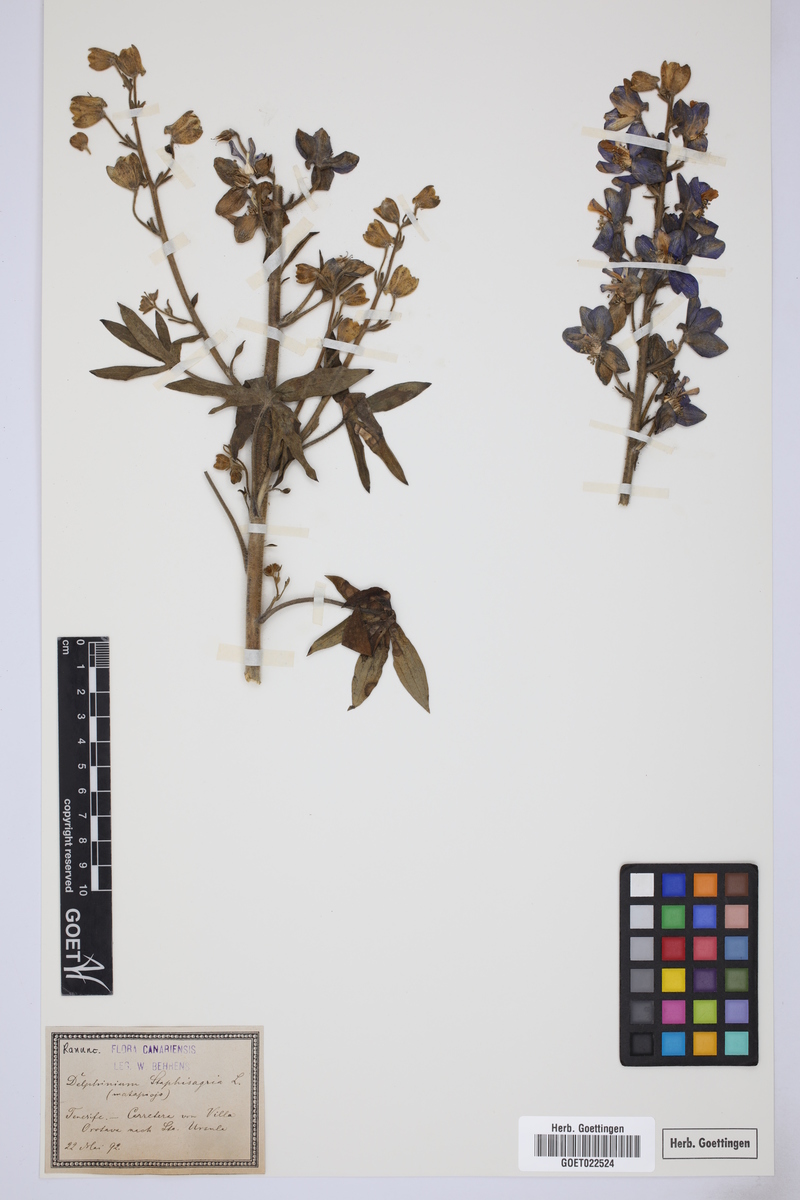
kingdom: Plantae
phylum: Tracheophyta
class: Magnoliopsida
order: Ranunculales
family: Ranunculaceae
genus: Staphisagria
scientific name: Staphisagria macrosperma
